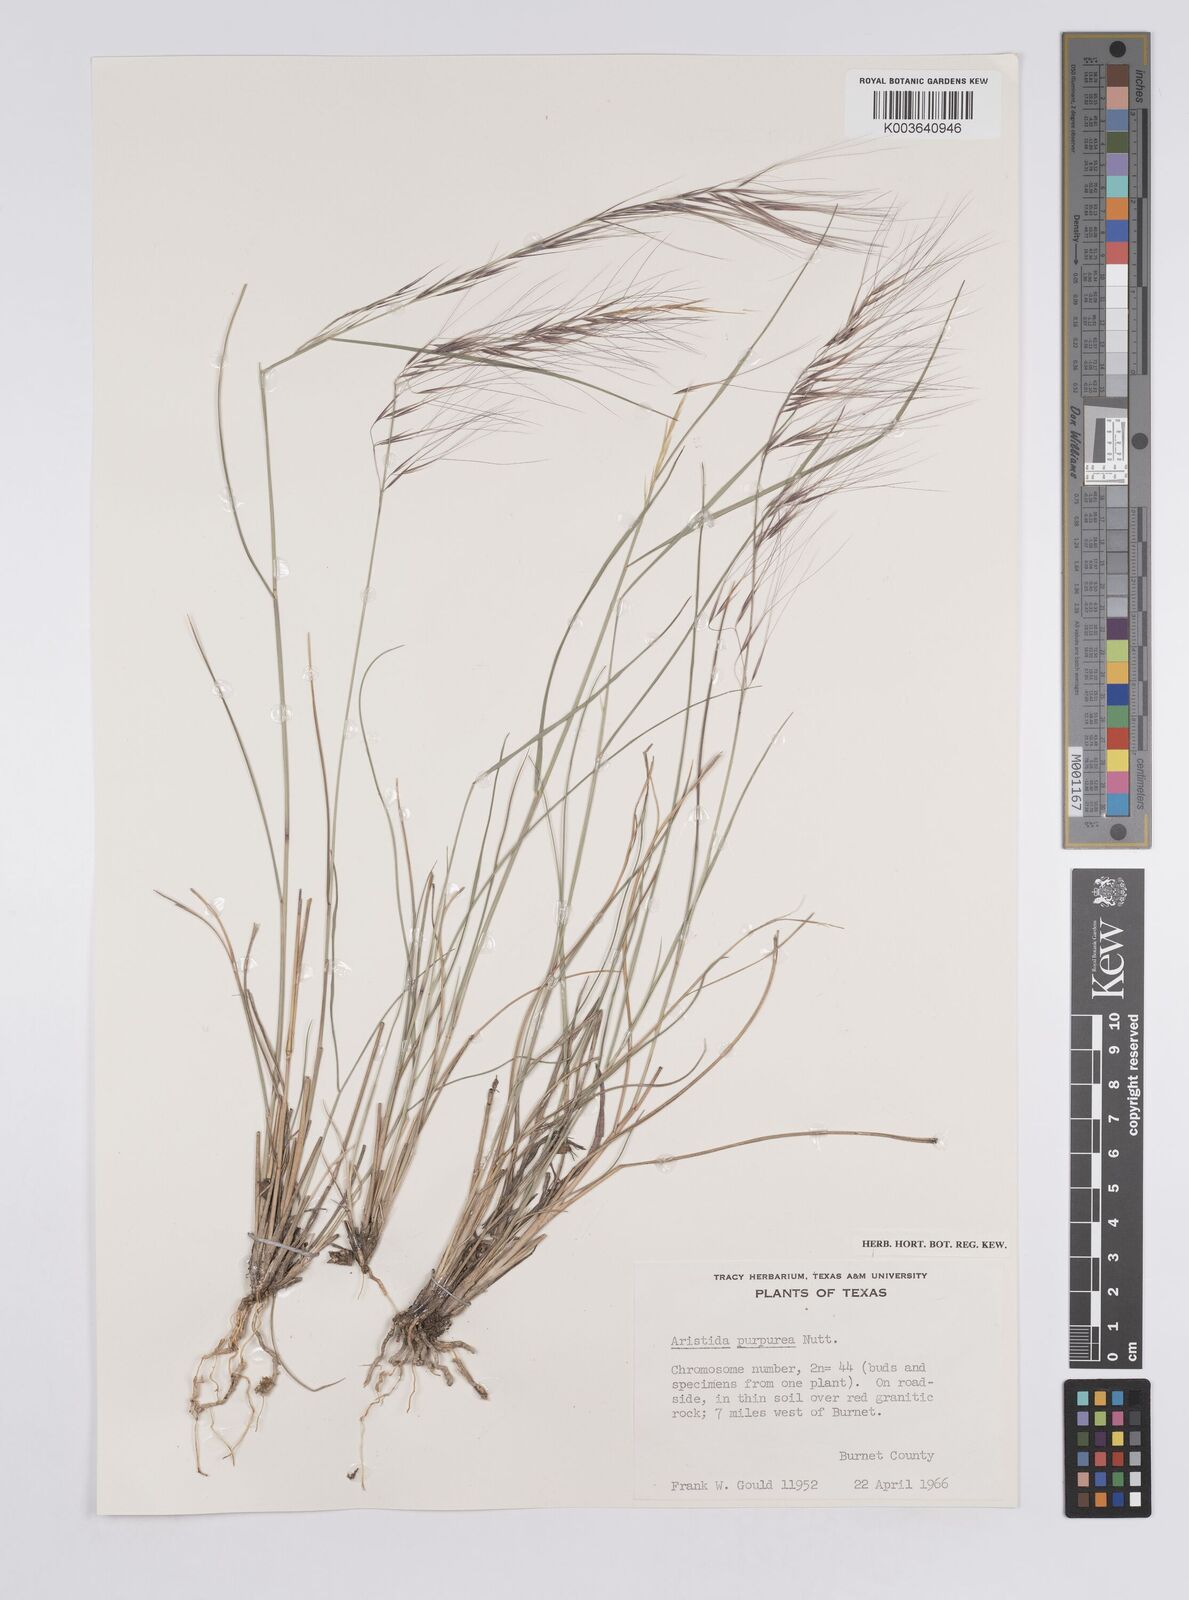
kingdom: Plantae
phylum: Tracheophyta
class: Liliopsida
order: Poales
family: Poaceae
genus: Aristida
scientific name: Aristida purpurea
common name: Purple threeawn
